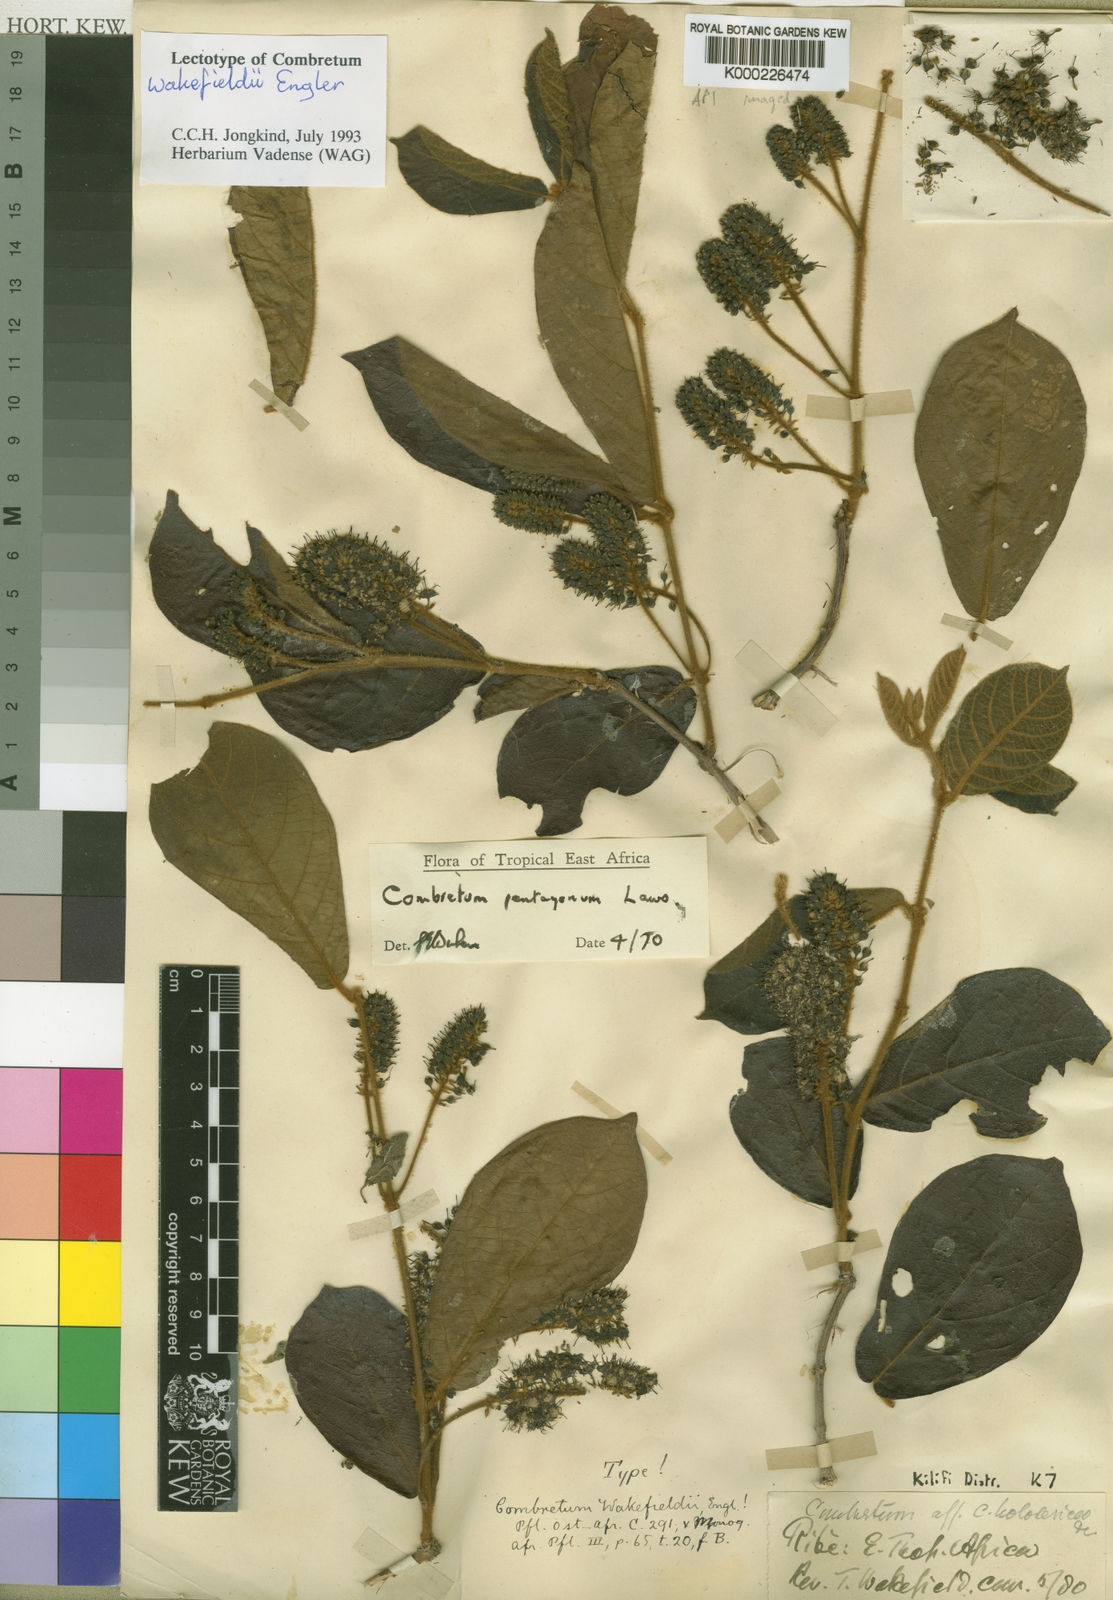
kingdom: Plantae
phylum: Tracheophyta
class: Magnoliopsida
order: Myrtales
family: Combretaceae
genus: Combretum
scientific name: Combretum pentagonum
